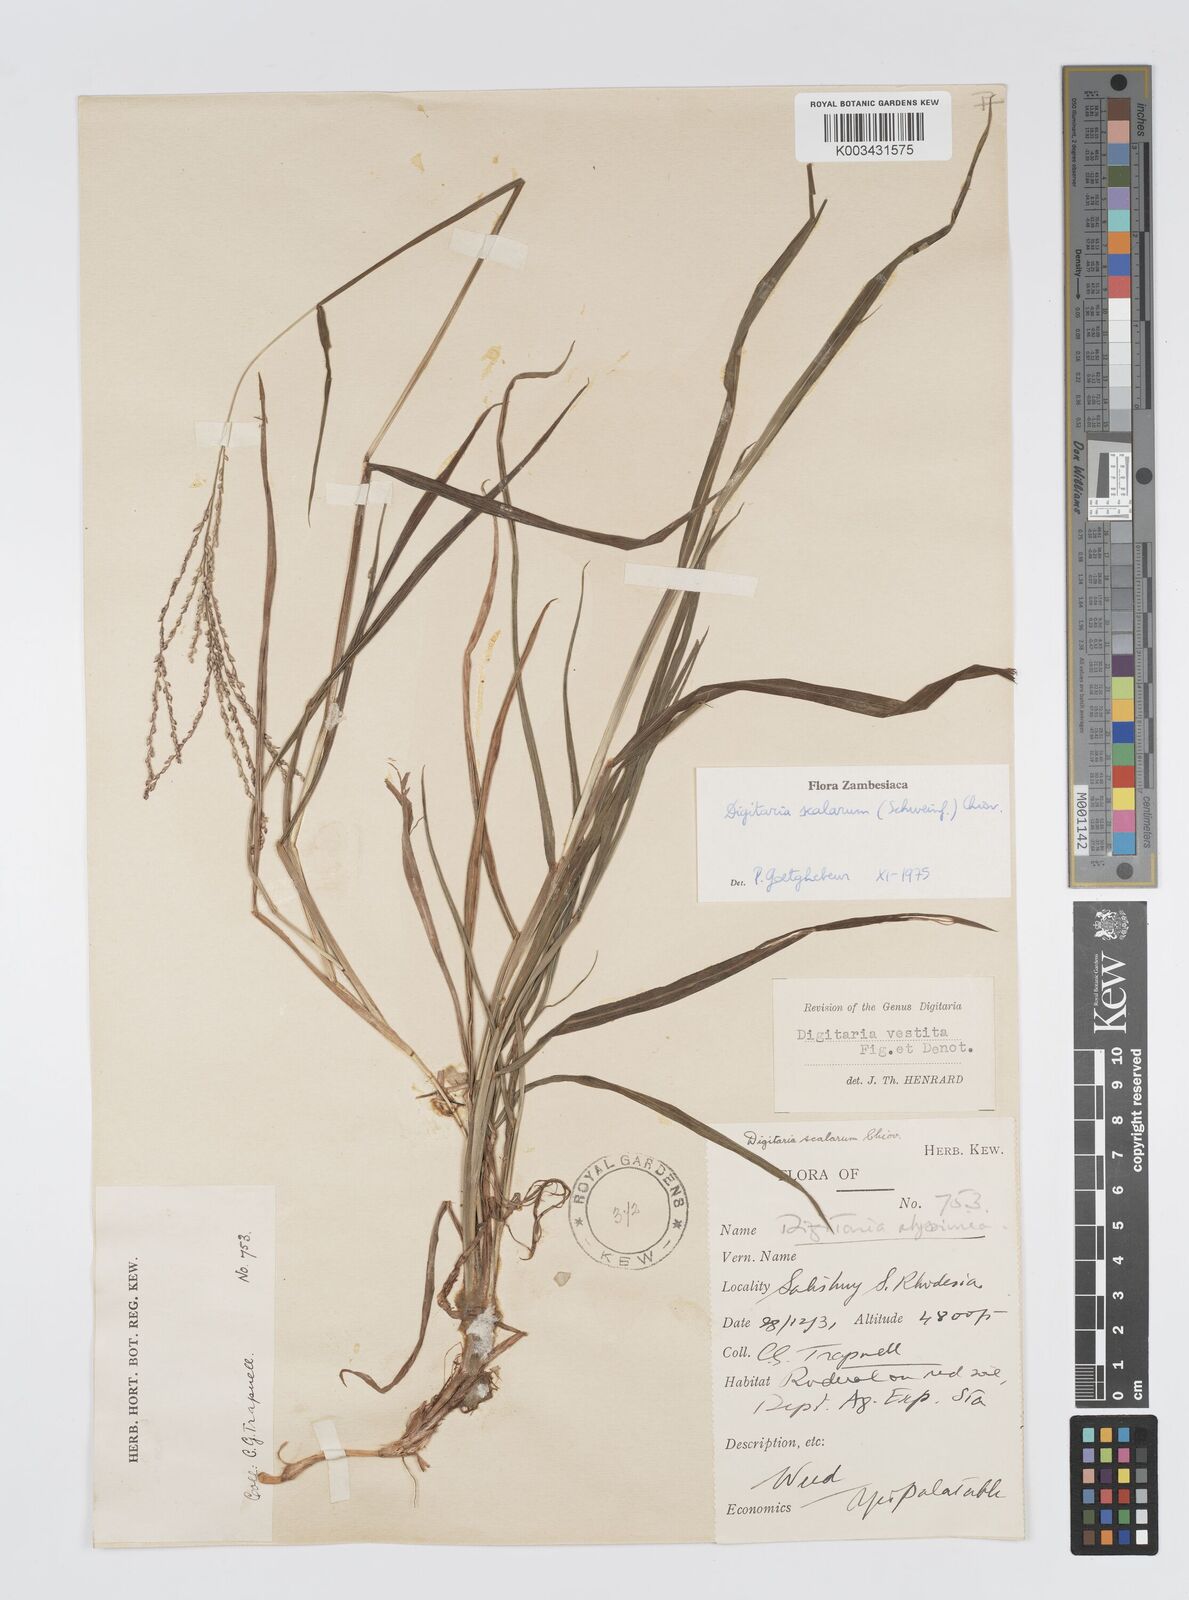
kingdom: Plantae
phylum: Tracheophyta
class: Liliopsida
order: Poales
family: Poaceae
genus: Digitaria
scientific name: Digitaria abyssinica
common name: African couchgrass
